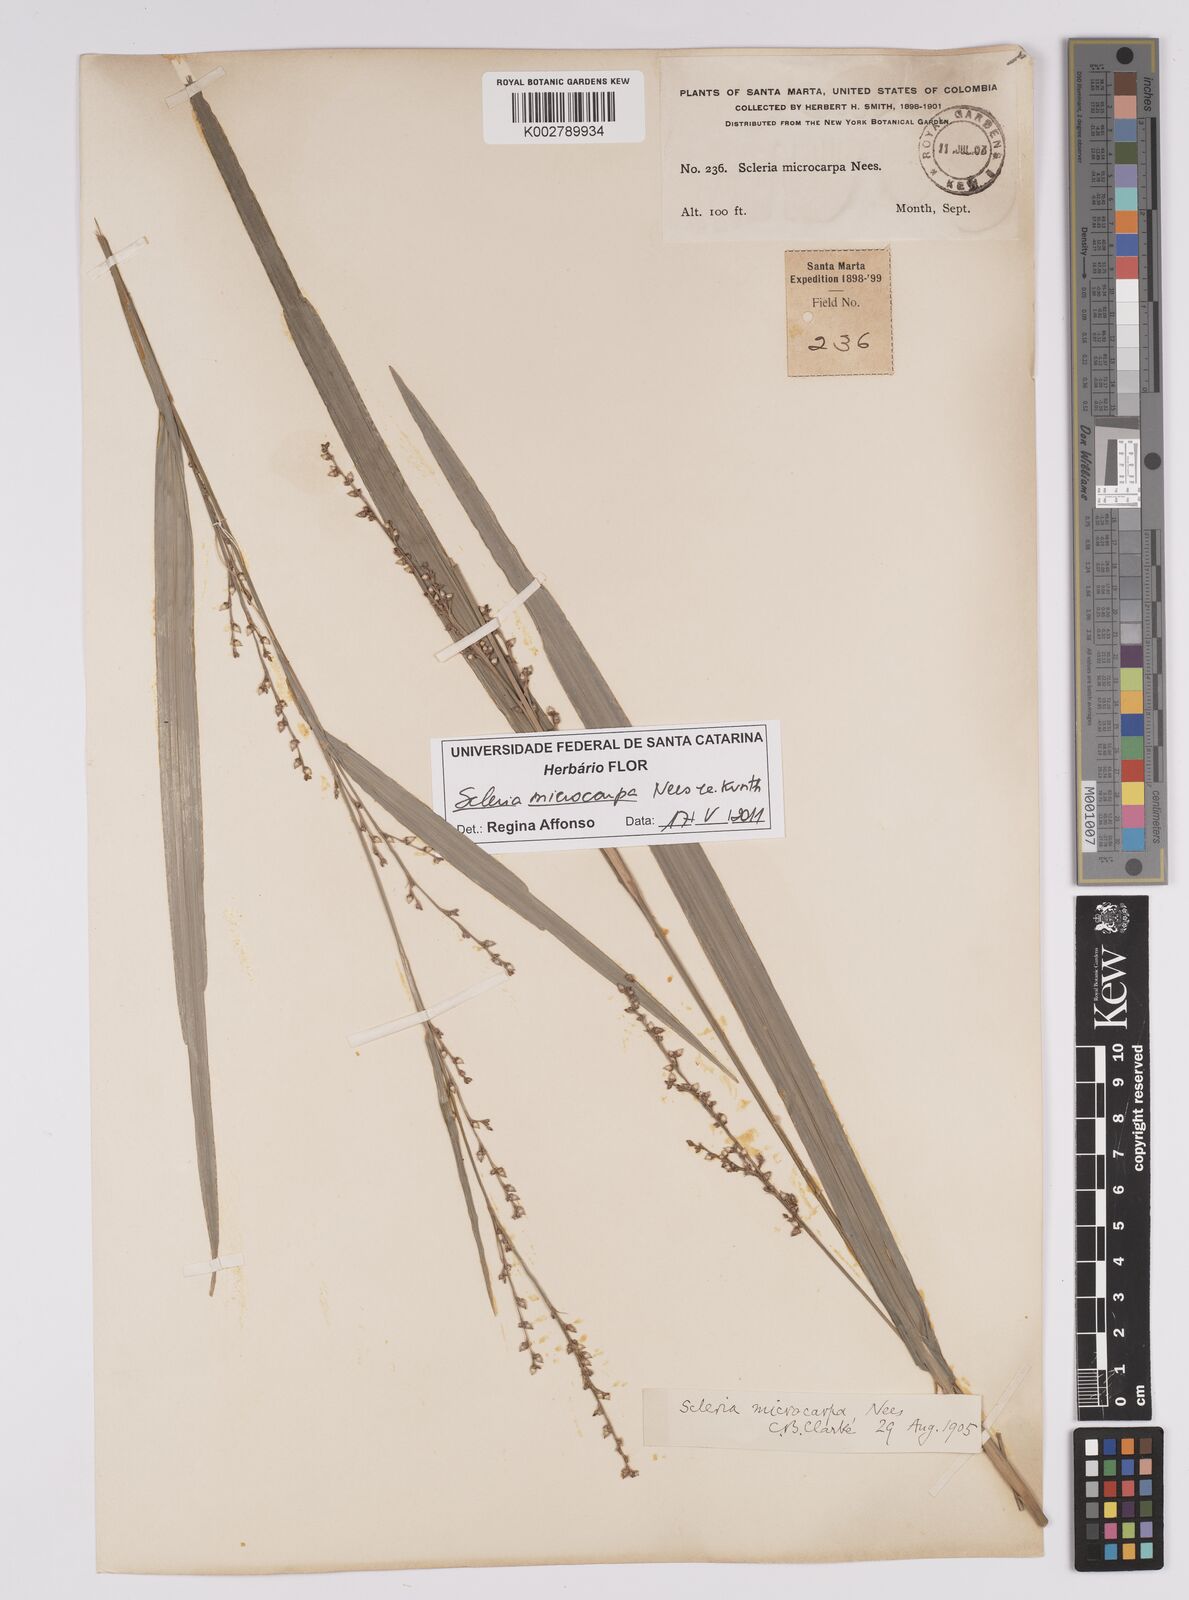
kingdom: Plantae
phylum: Tracheophyta
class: Liliopsida
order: Poales
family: Cyperaceae
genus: Scleria
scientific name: Scleria microcarpa
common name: Tropical nutrush
